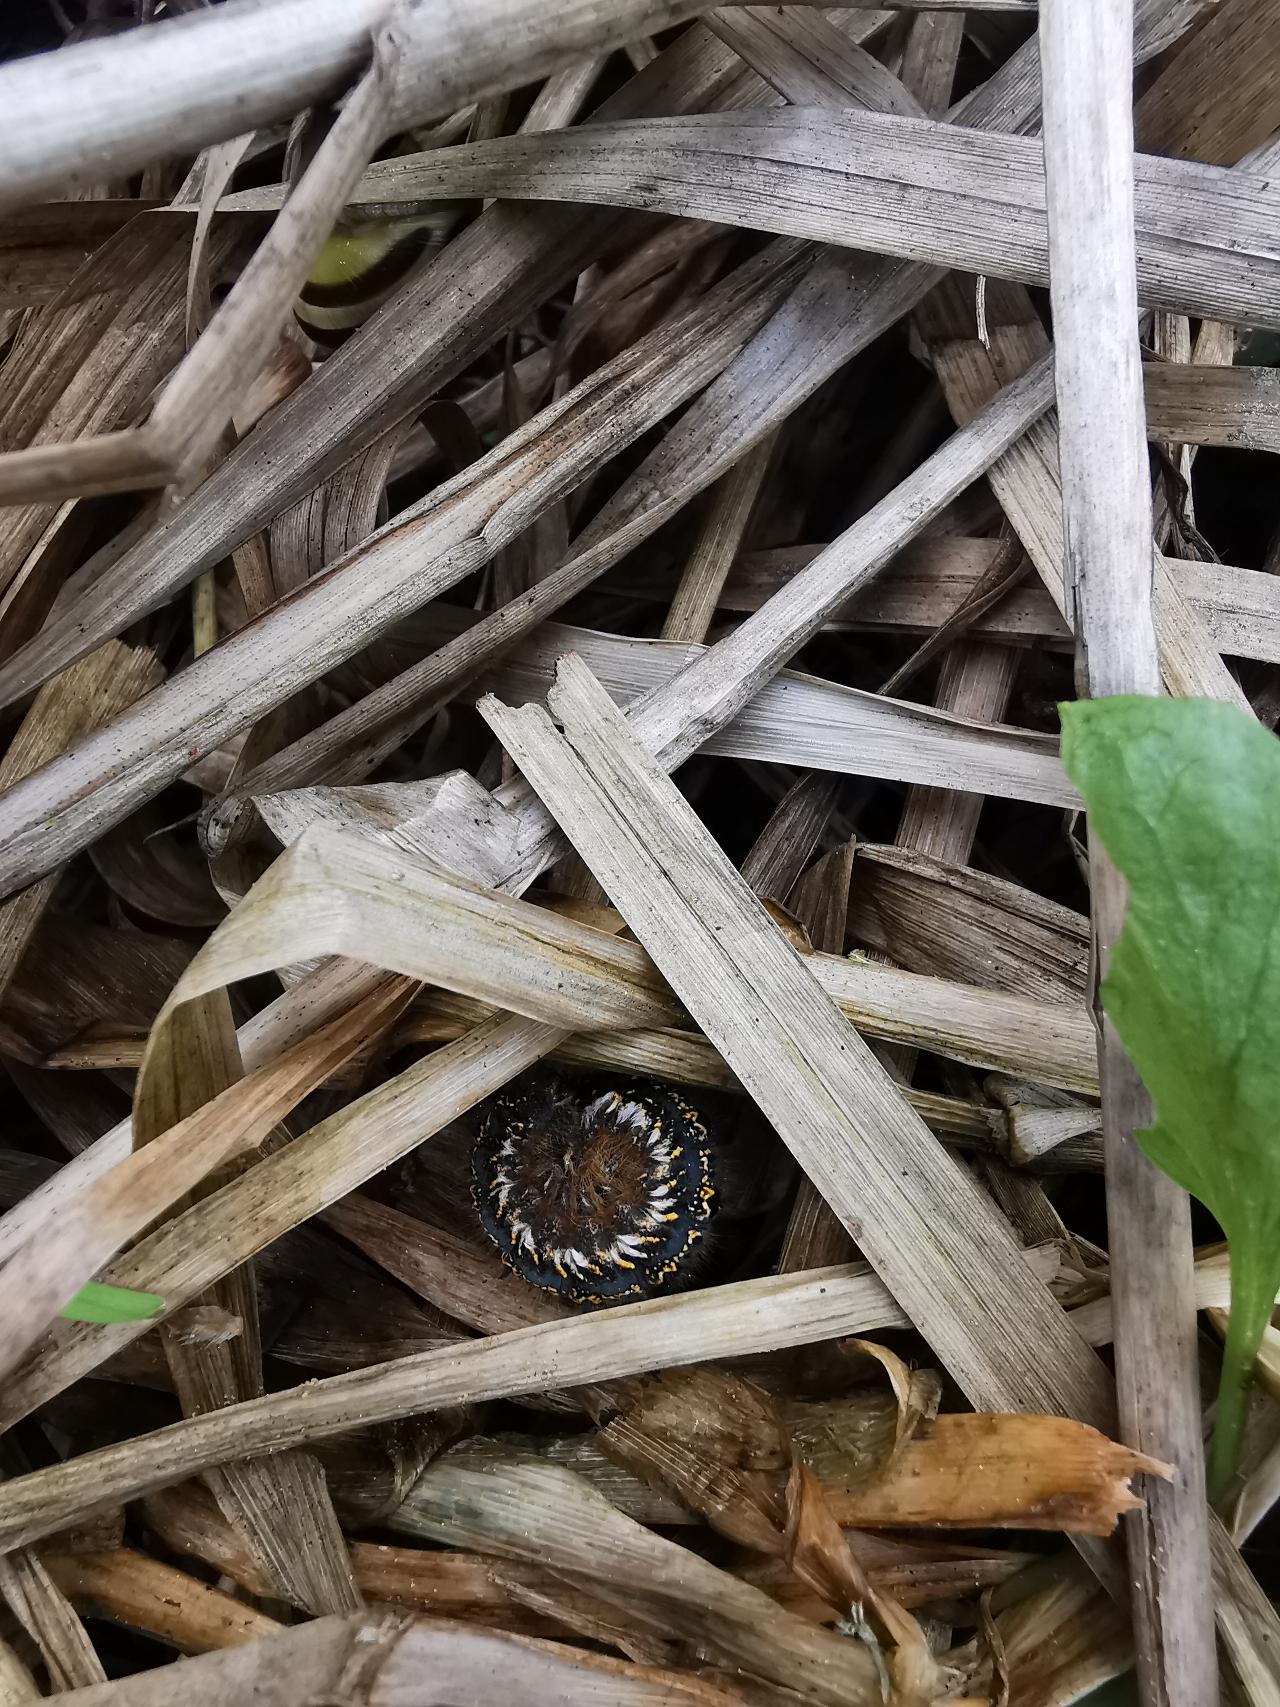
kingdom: Animalia
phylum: Arthropoda
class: Insecta
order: Lepidoptera
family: Lasiocampidae
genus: Euthrix
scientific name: Euthrix potatoria
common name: Græsspinder
